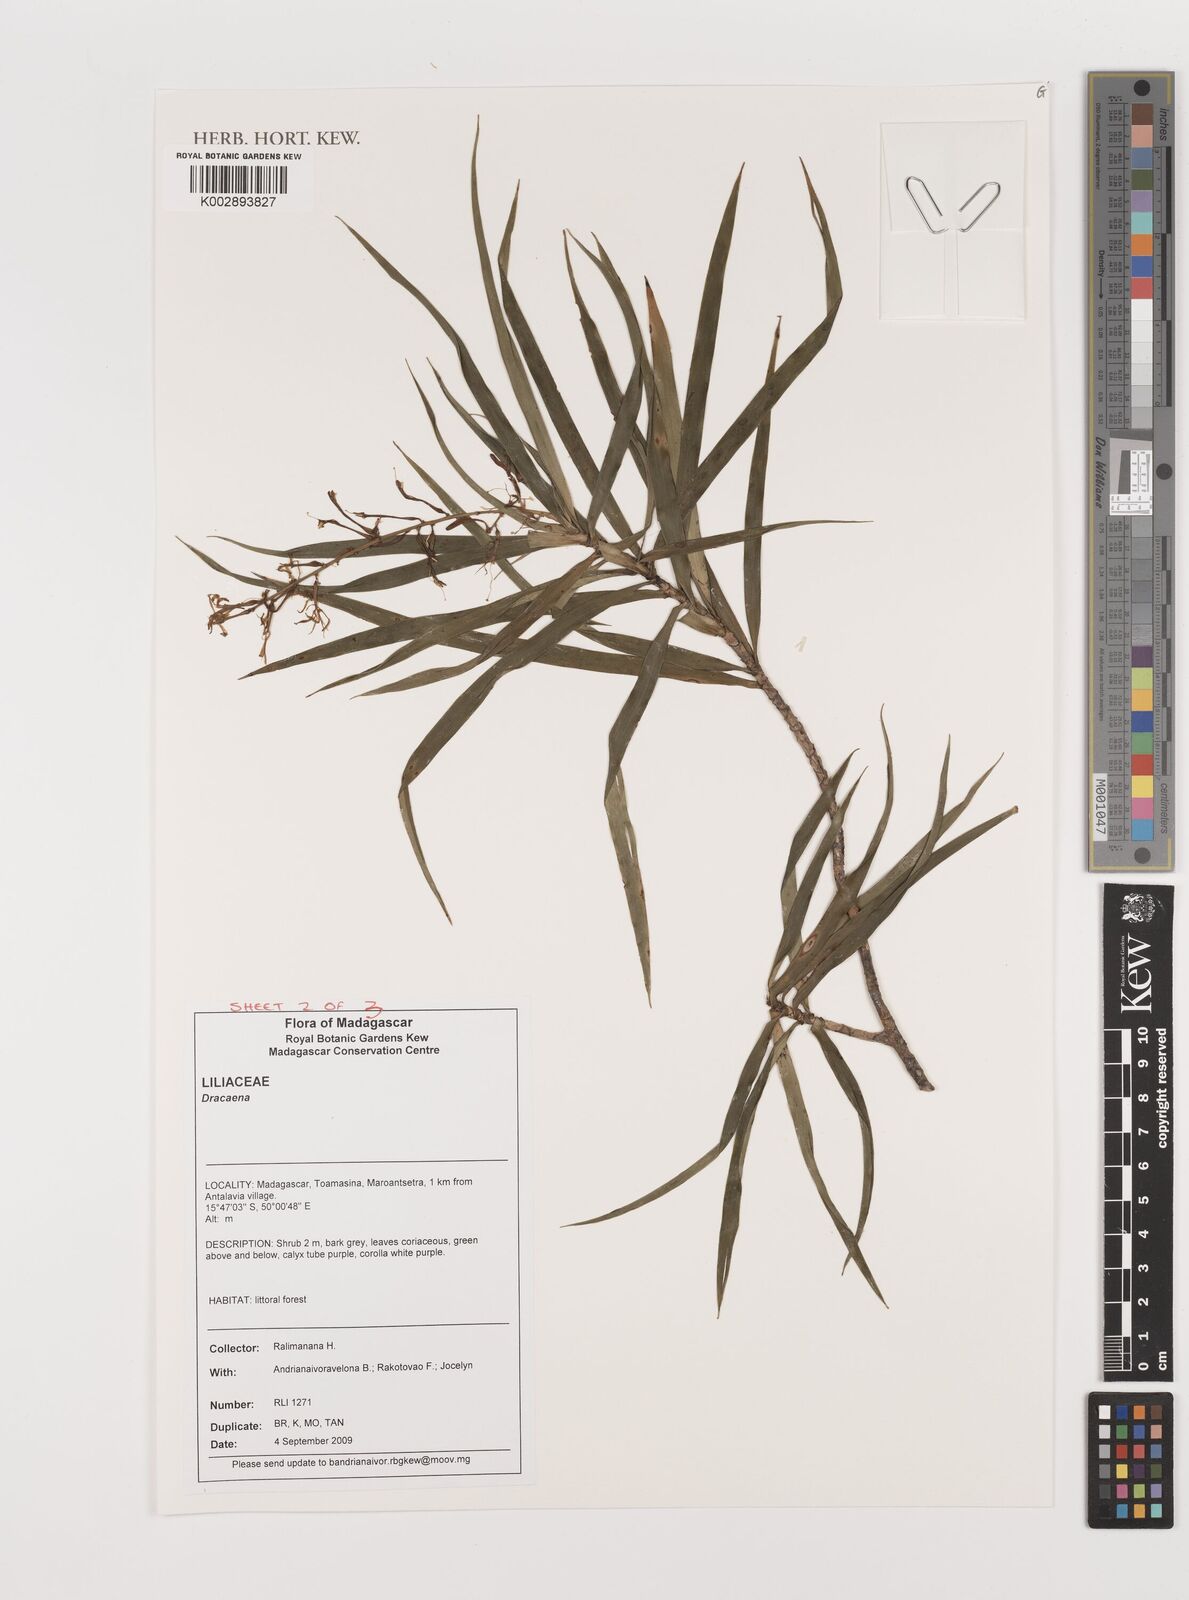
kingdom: Plantae
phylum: Tracheophyta
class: Liliopsida
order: Asparagales
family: Asparagaceae
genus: Dracaena
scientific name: Dracaena
